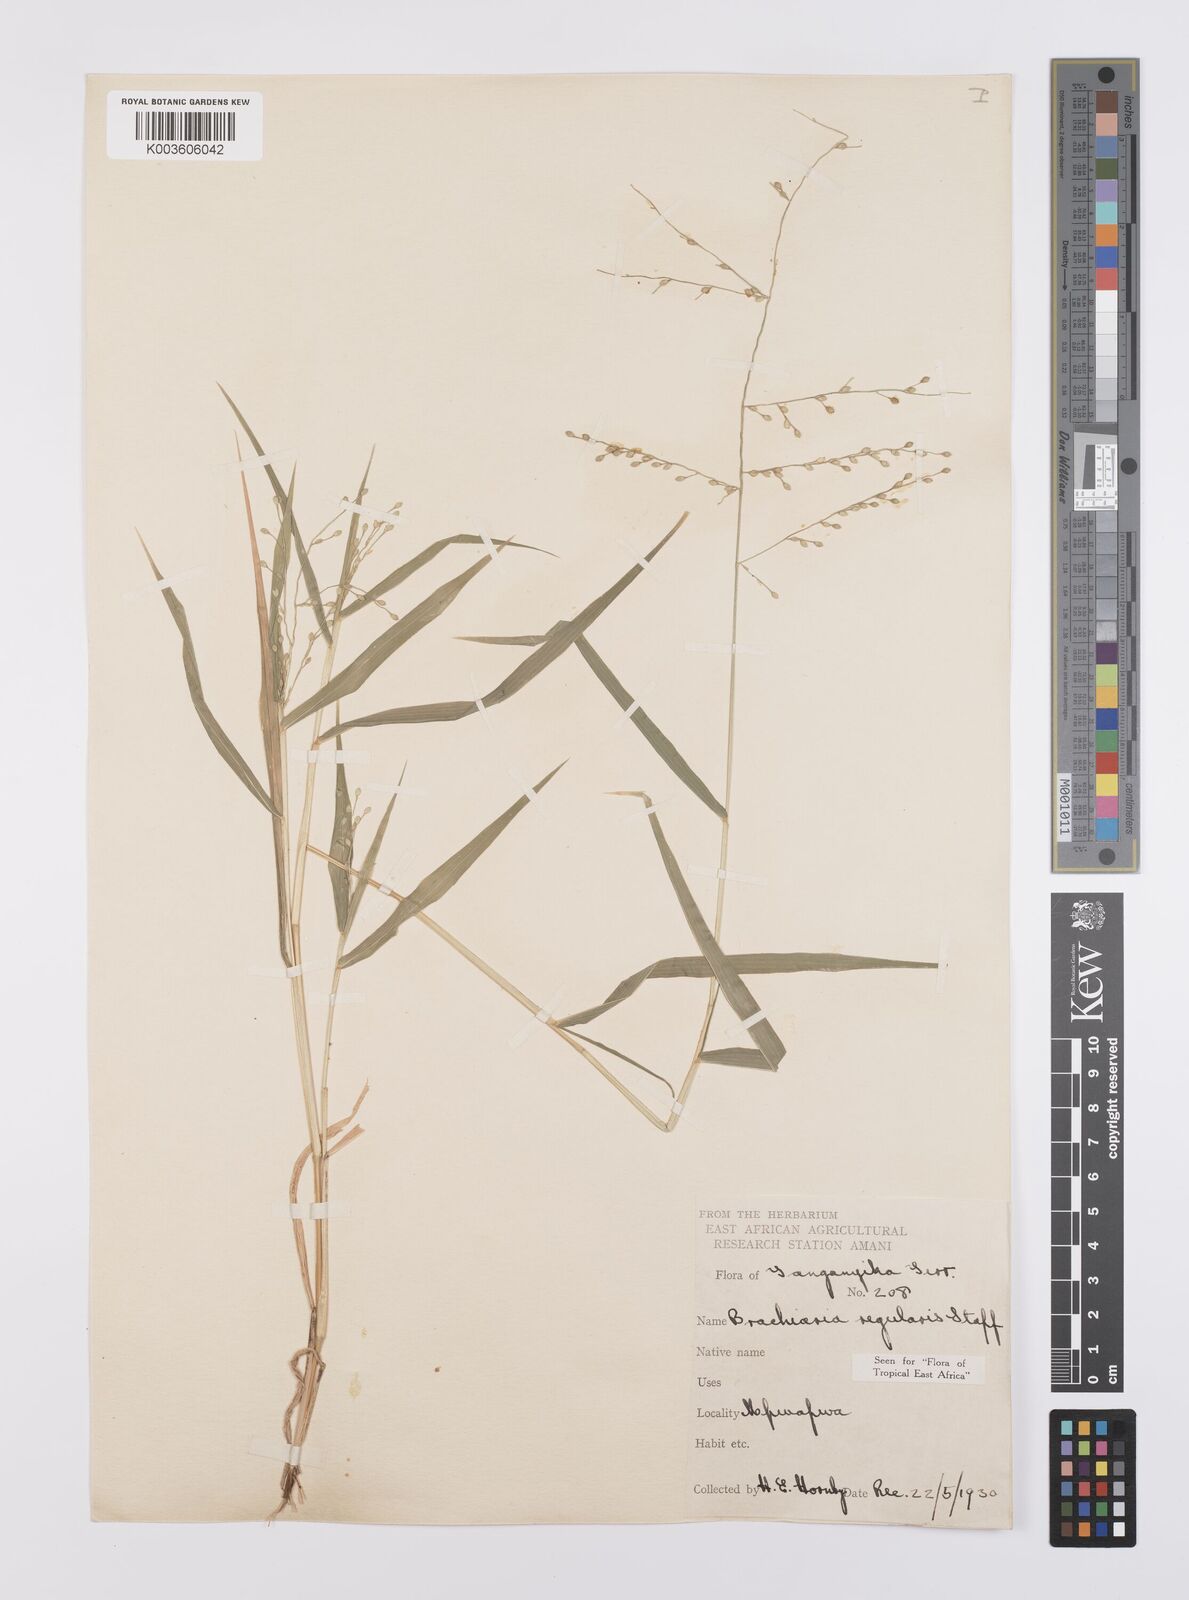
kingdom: Plantae
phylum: Tracheophyta
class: Liliopsida
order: Poales
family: Poaceae
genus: Urochloa
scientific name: Urochloa deflexa
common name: Guinea millet
